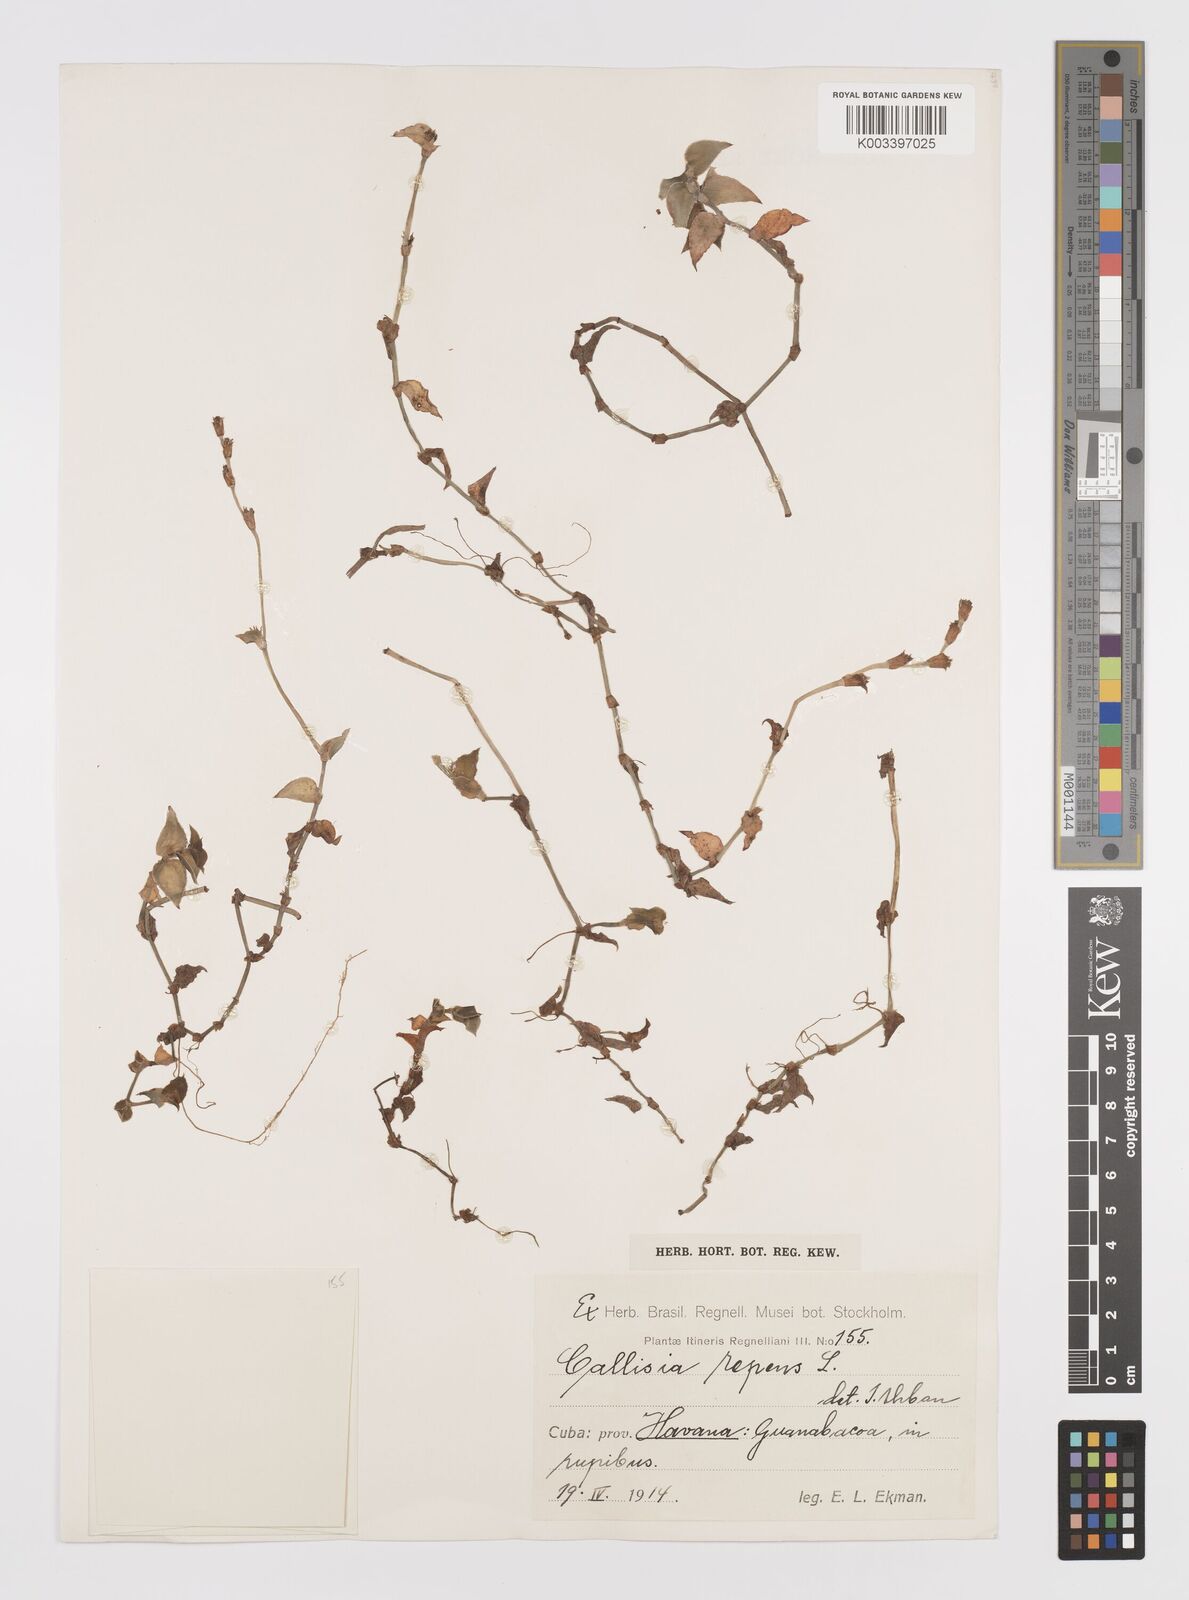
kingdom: Plantae
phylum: Tracheophyta
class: Liliopsida
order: Commelinales
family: Commelinaceae
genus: Callisia
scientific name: Callisia repens
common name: Creeping inchplant
